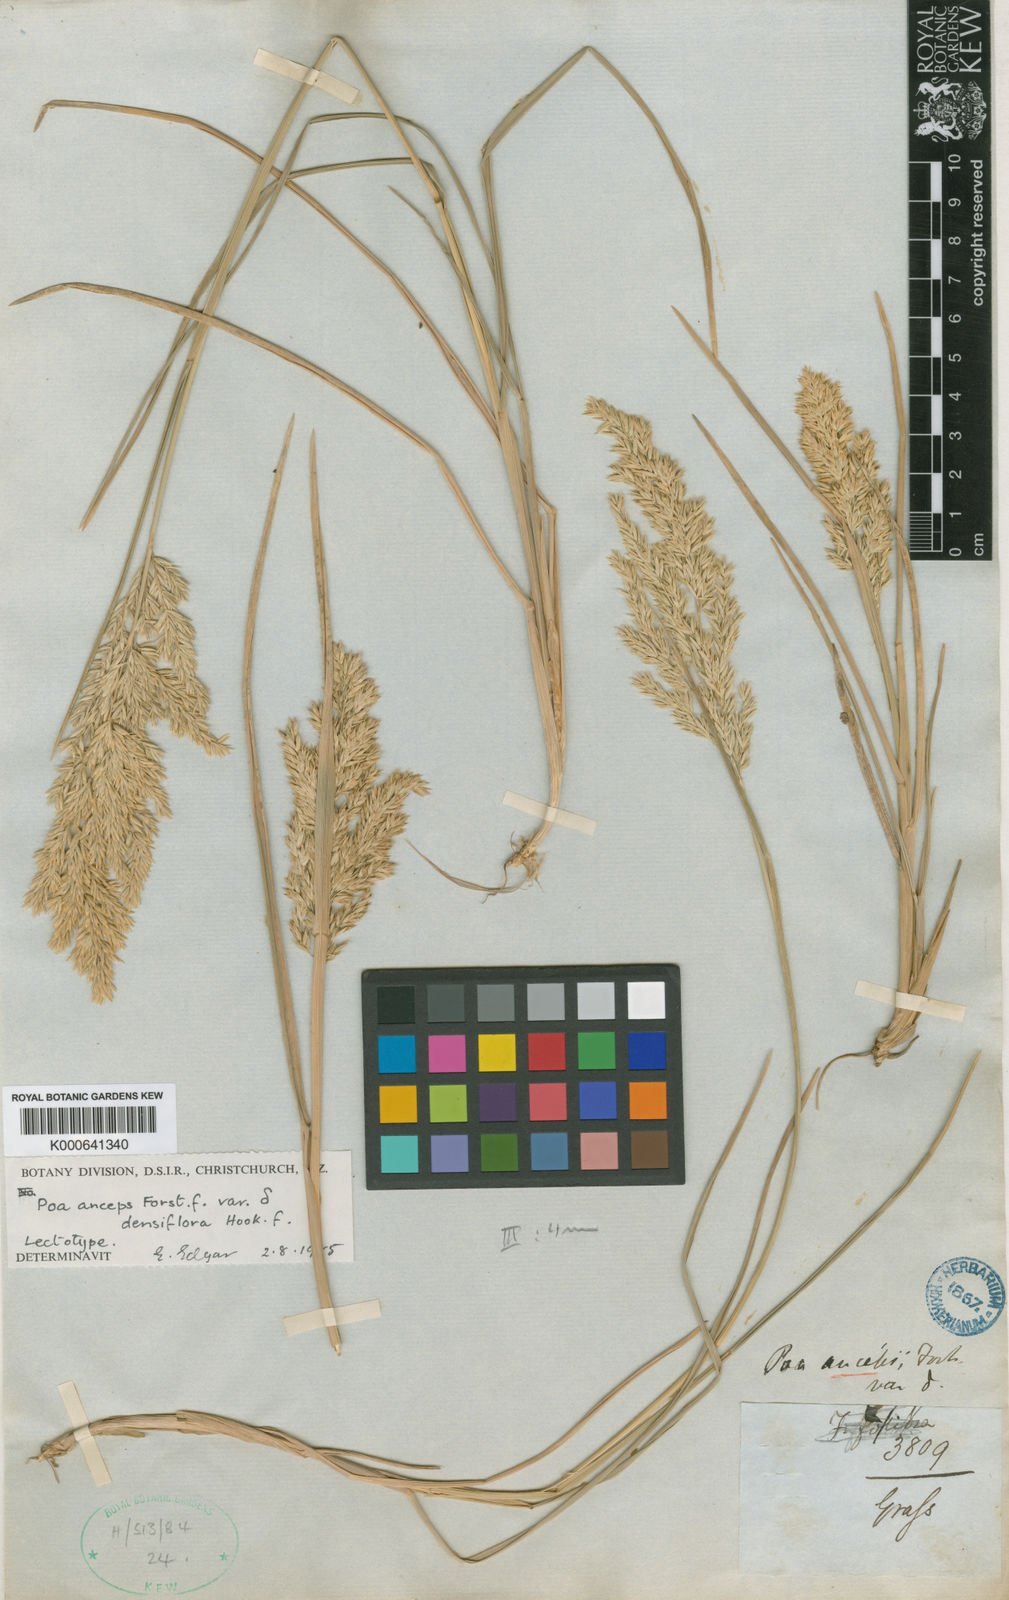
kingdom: Plantae
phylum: Tracheophyta
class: Liliopsida
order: Poales
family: Poaceae
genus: Poa
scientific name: Poa anceps
